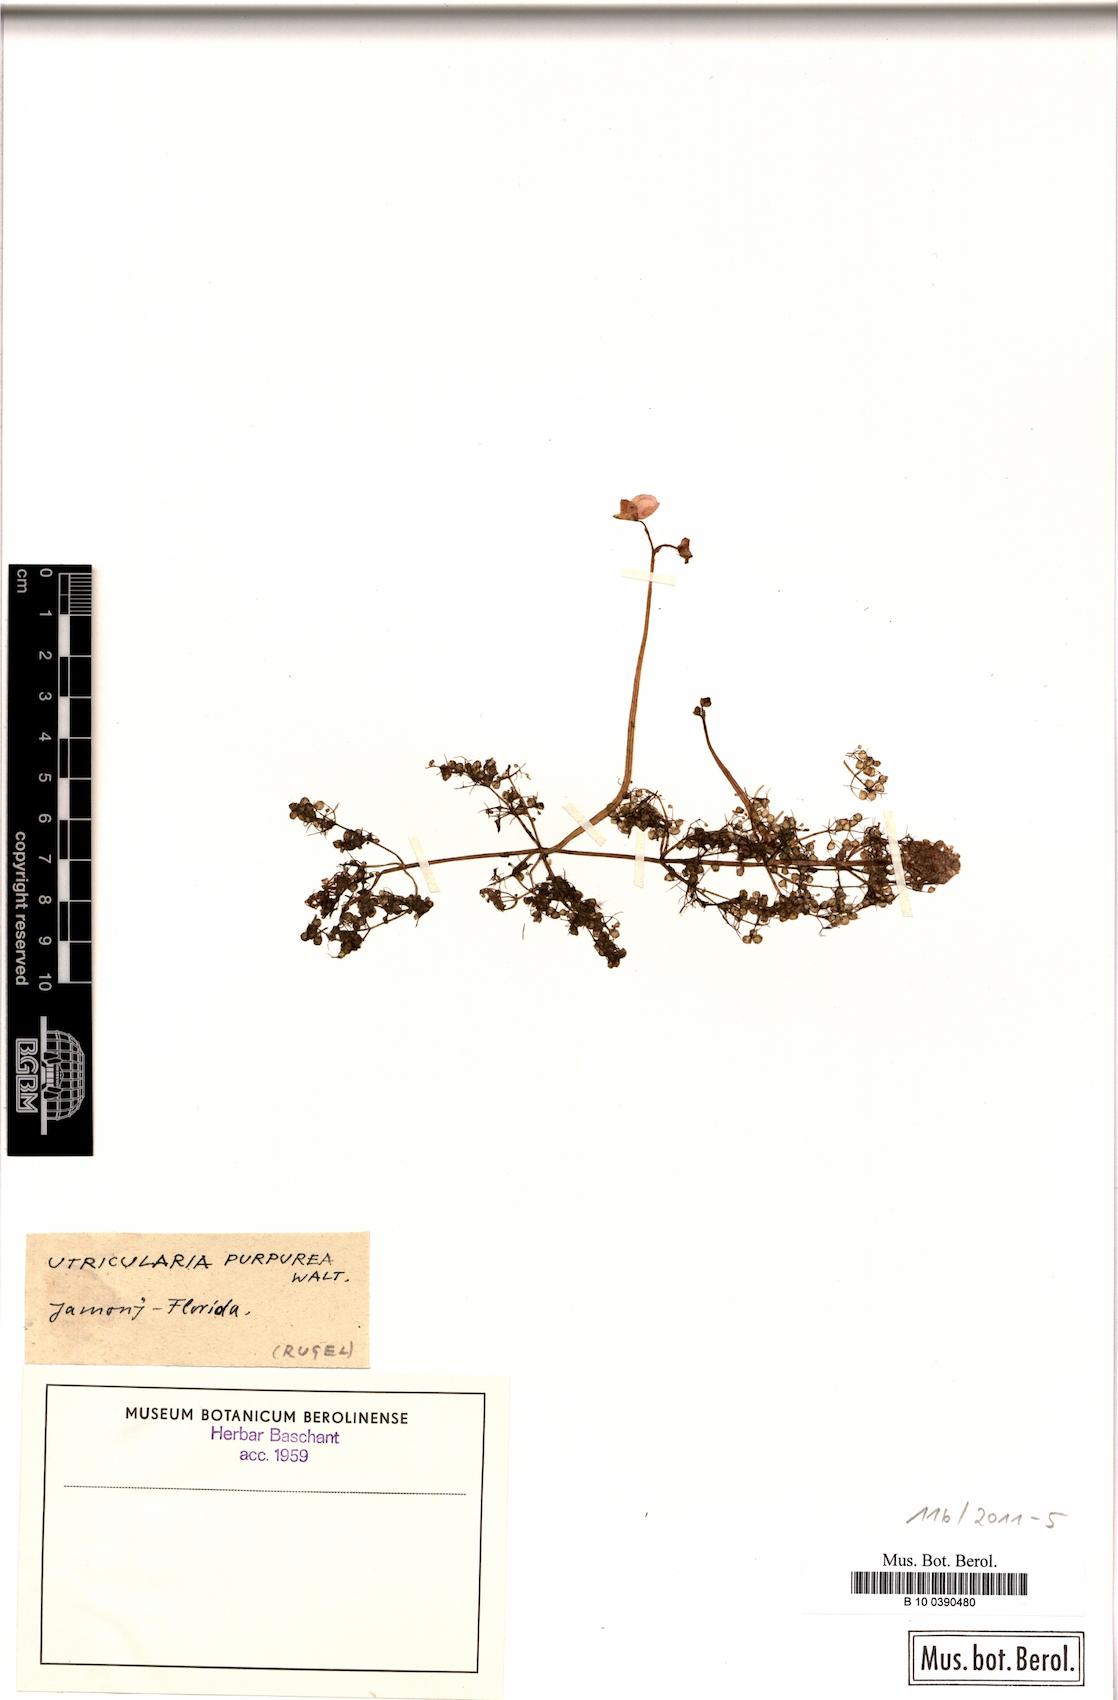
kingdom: Plantae
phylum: Tracheophyta
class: Magnoliopsida
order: Lamiales
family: Lentibulariaceae
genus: Utricularia
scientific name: Utricularia purpurea
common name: Eastern purple bladderwort
